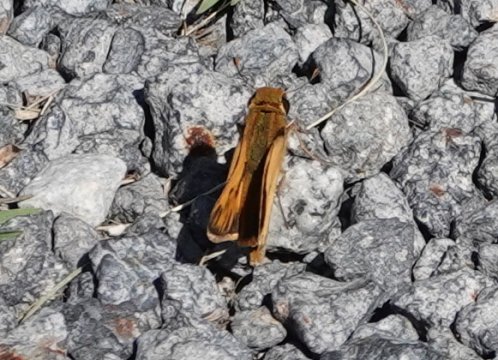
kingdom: Animalia
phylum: Arthropoda
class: Insecta
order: Lepidoptera
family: Hesperiidae
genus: Hylephila
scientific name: Hylephila phyleus
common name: Fiery Skipper
